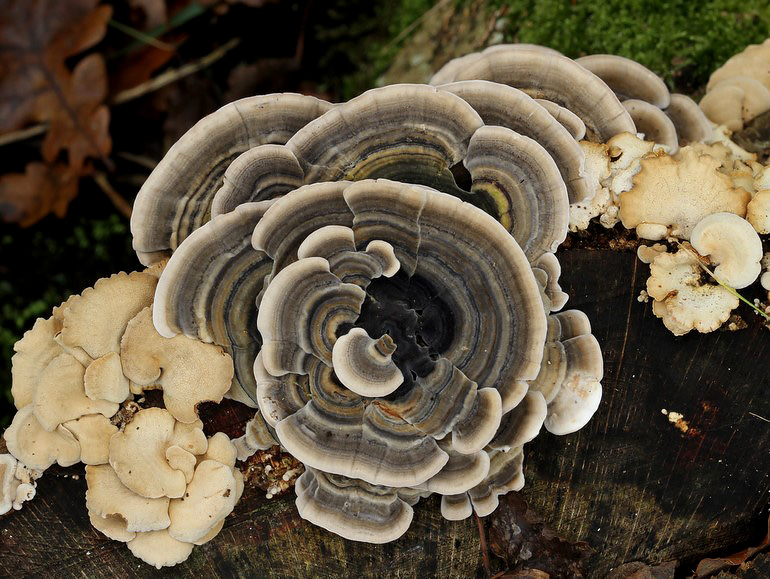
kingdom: Fungi
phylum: Basidiomycota
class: Agaricomycetes
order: Polyporales
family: Polyporaceae
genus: Trametes
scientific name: Trametes versicolor
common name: broget læderporesvamp
